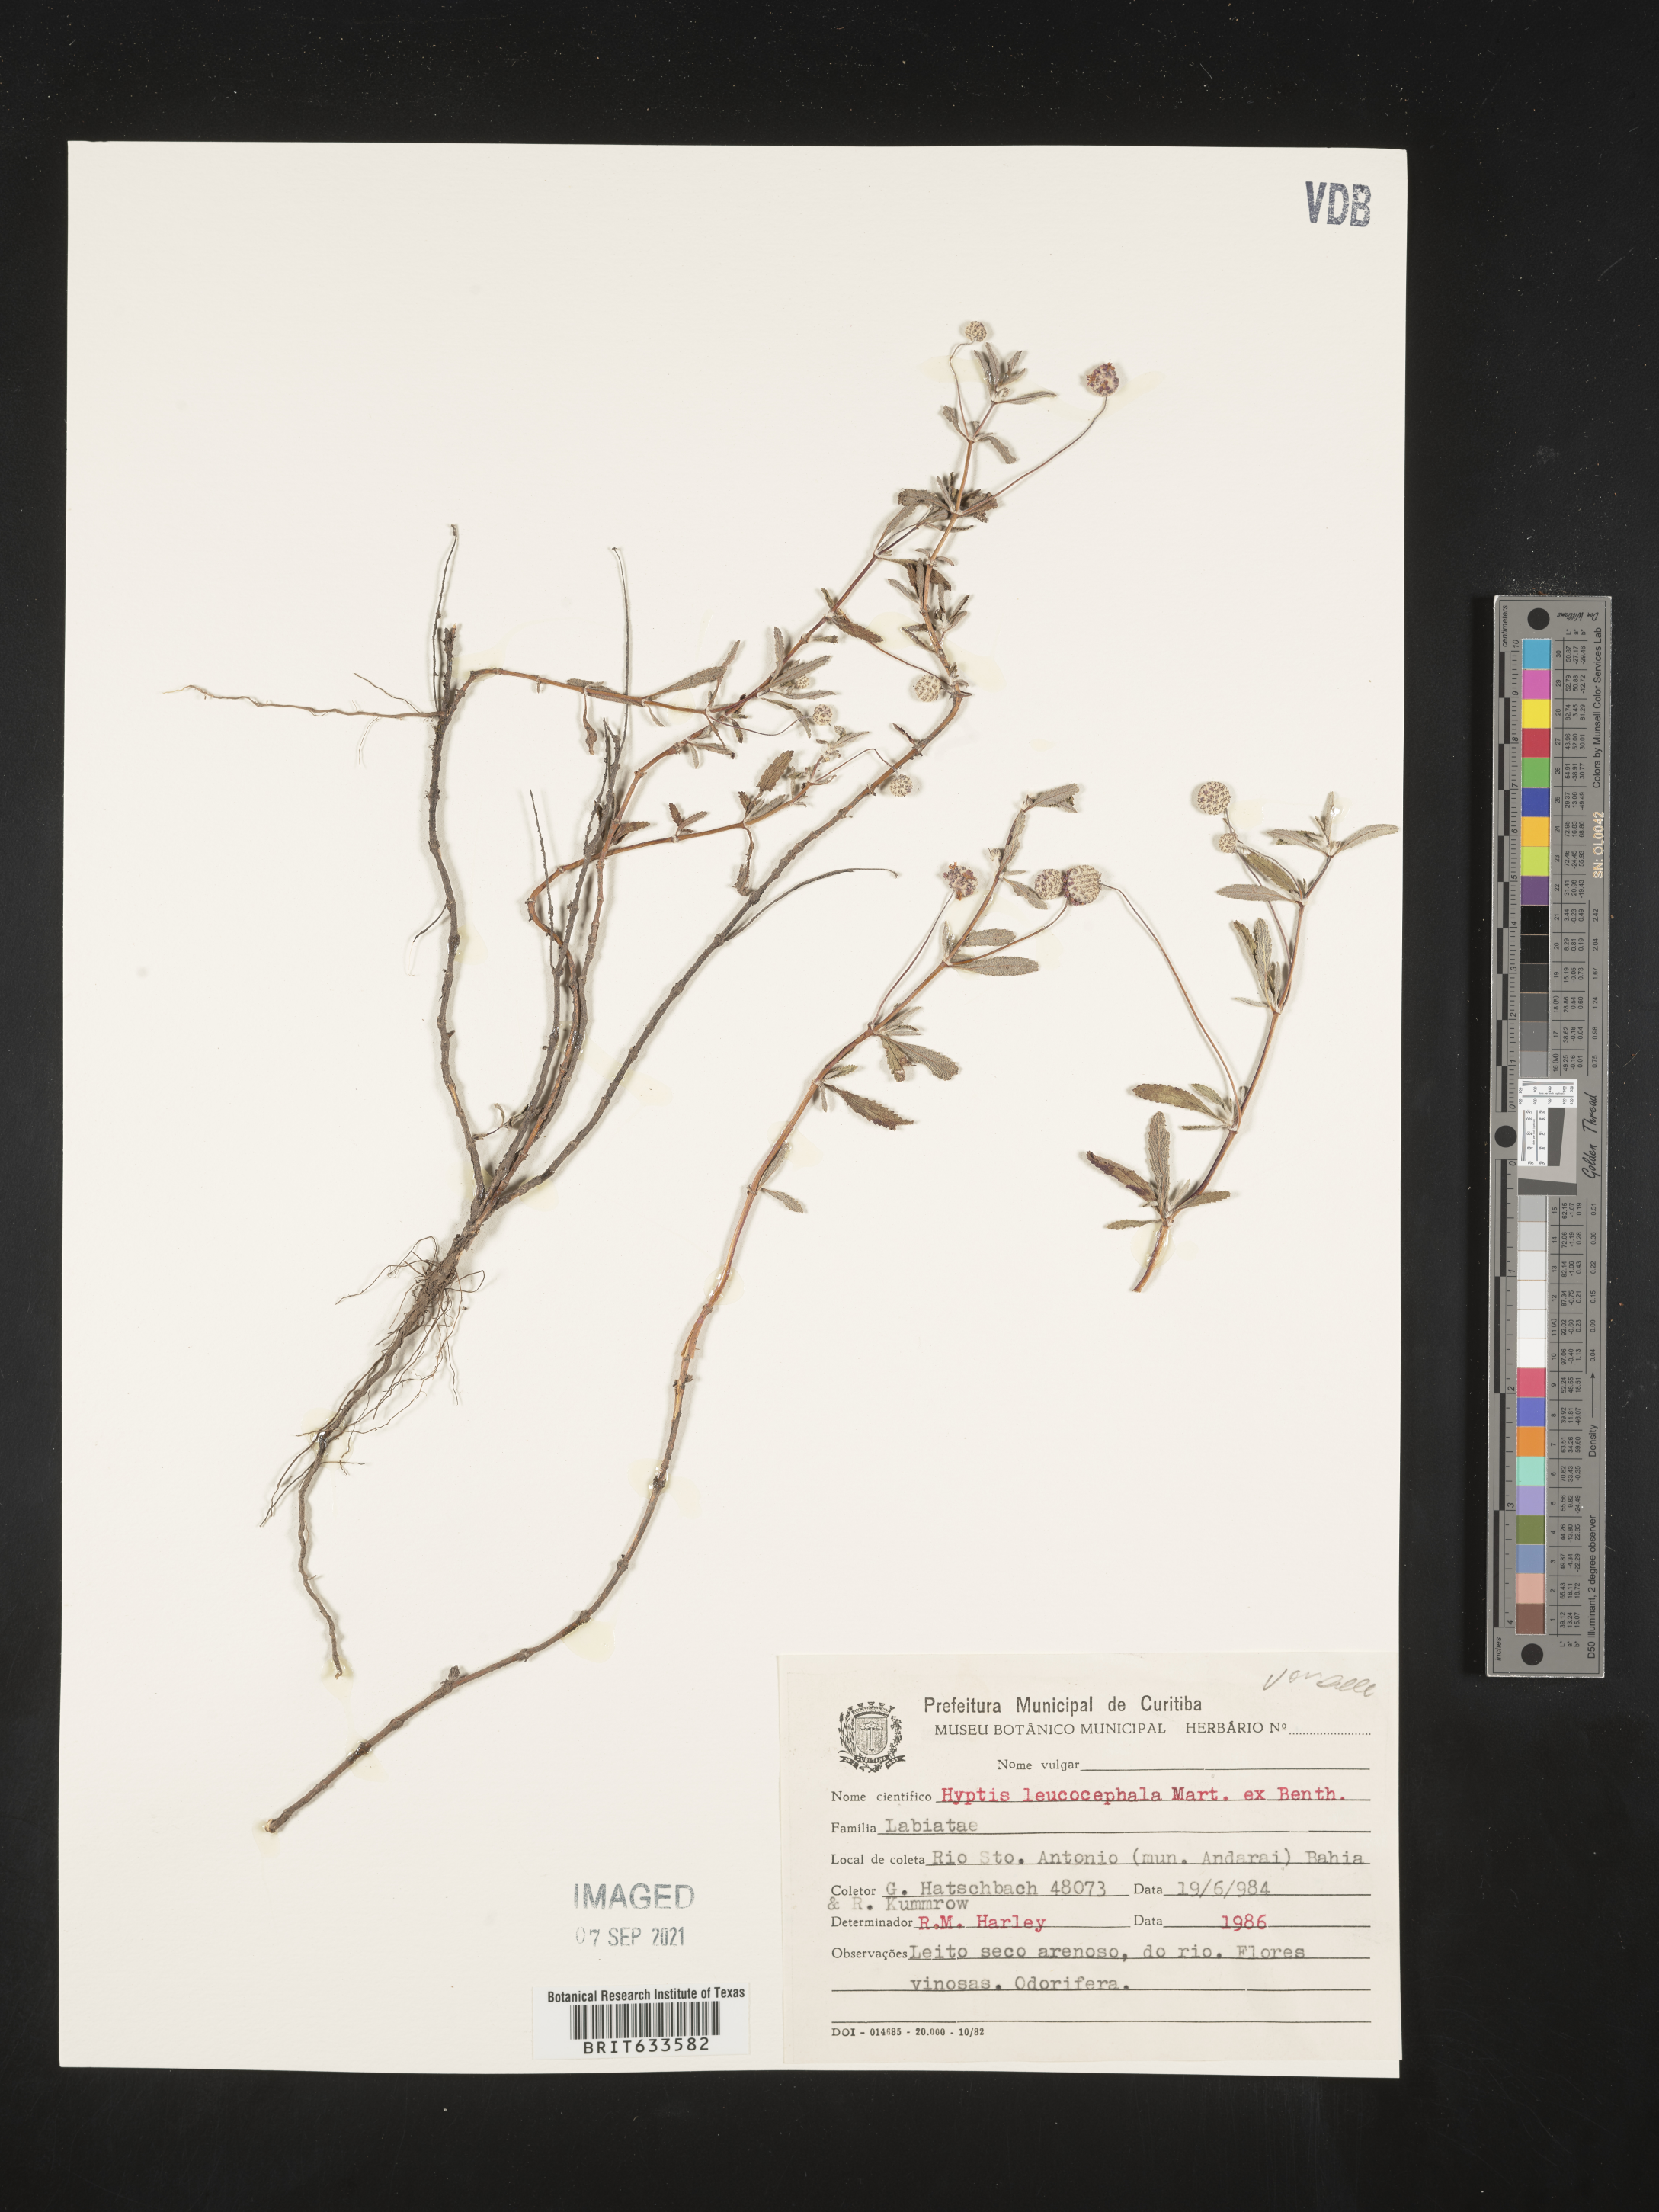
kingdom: Plantae
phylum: Tracheophyta
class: Magnoliopsida
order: Lamiales
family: Lamiaceae
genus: Hyptis
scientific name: Hyptis
